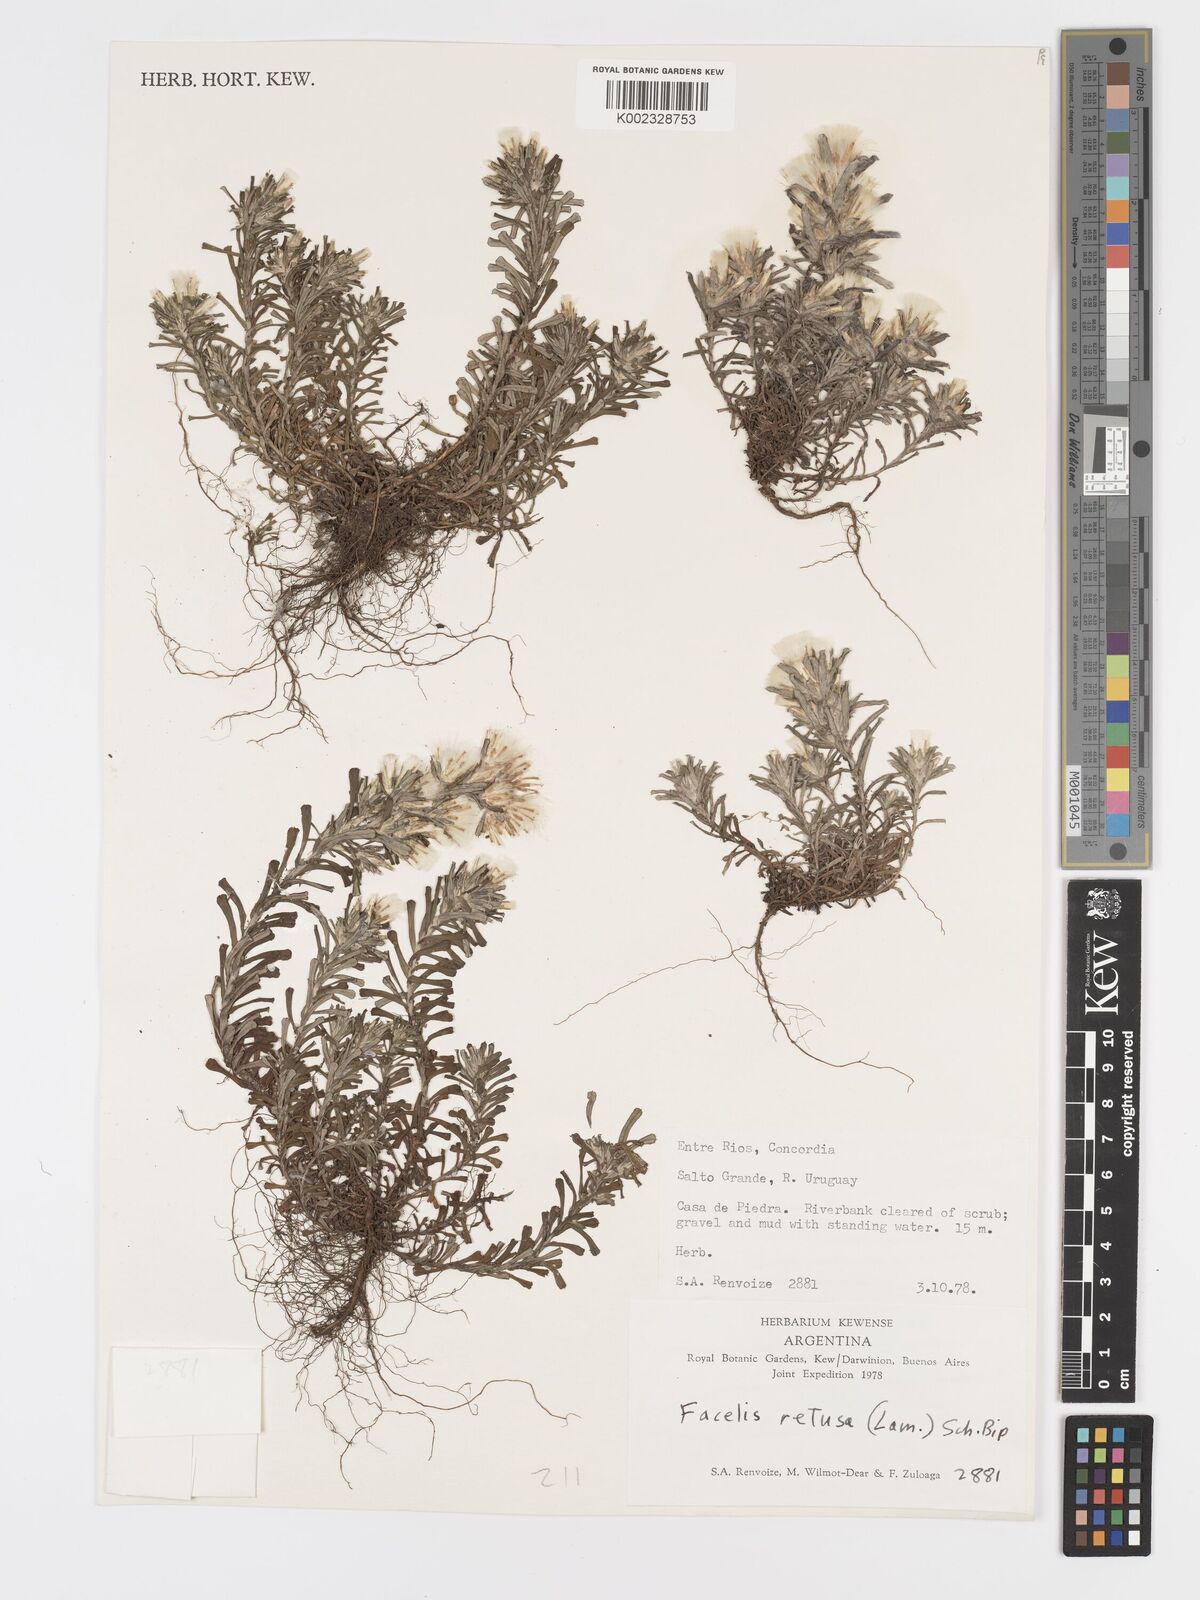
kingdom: Plantae
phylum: Tracheophyta
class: Magnoliopsida
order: Asterales
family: Asteraceae
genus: Facelis
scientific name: Facelis retusa
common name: Annual trampweed
